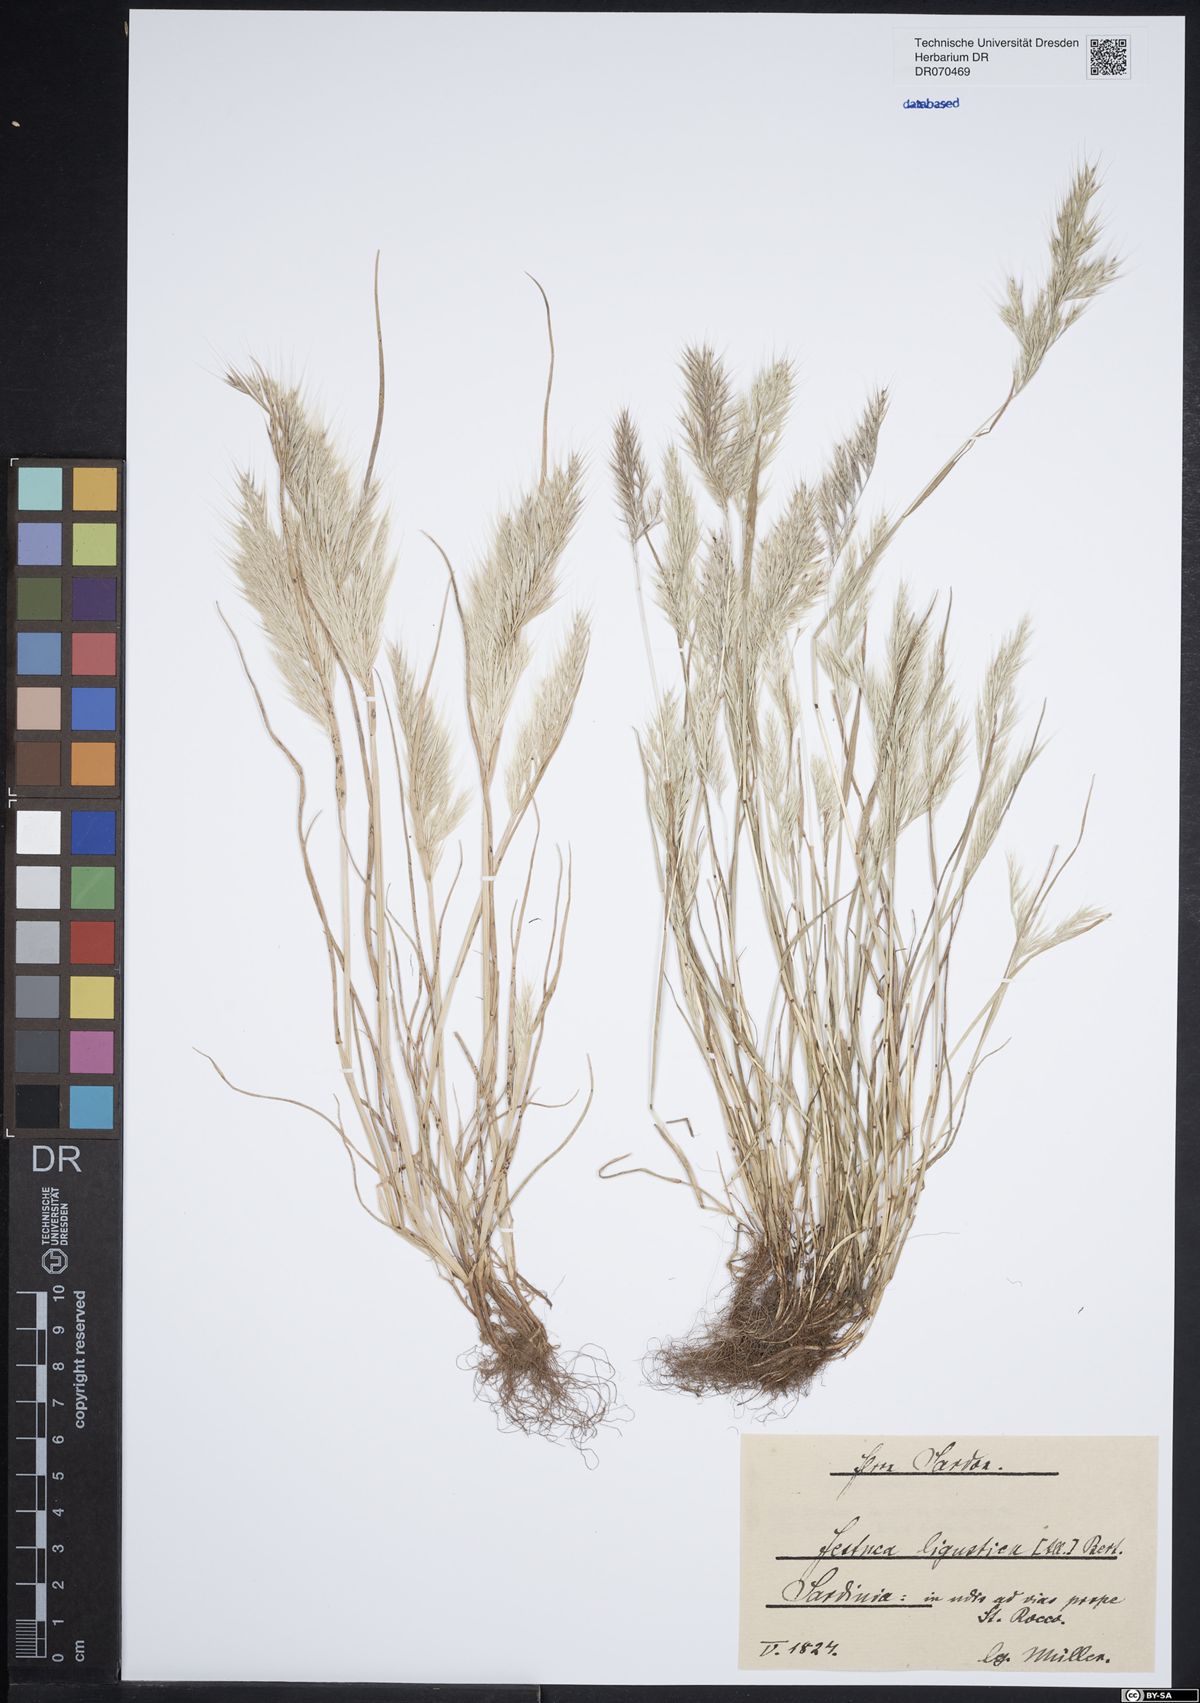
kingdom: Plantae
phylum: Tracheophyta
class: Liliopsida
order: Poales
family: Poaceae
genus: Festuca
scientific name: Festuca ligustica
